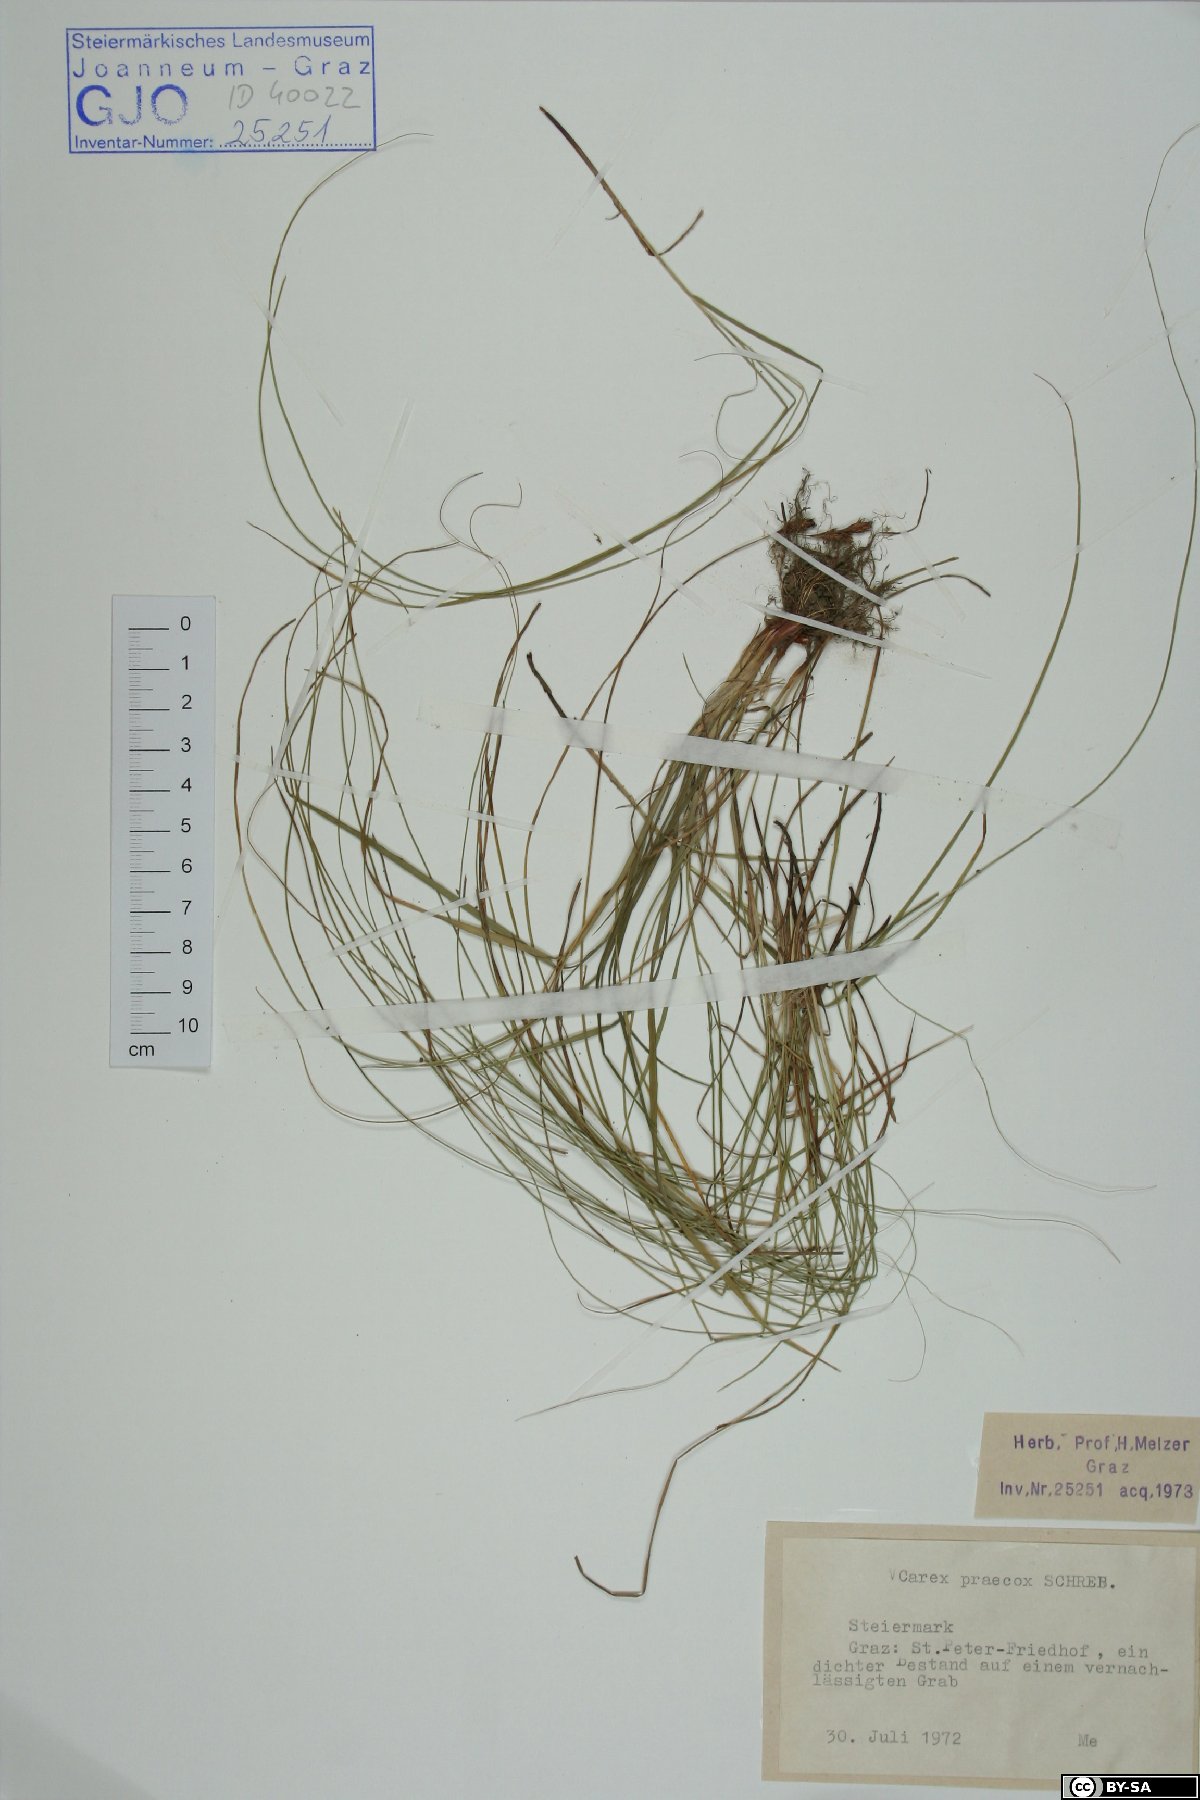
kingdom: Plantae
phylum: Tracheophyta
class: Liliopsida
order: Poales
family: Cyperaceae
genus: Carex
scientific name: Carex praecox
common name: Early sedge
